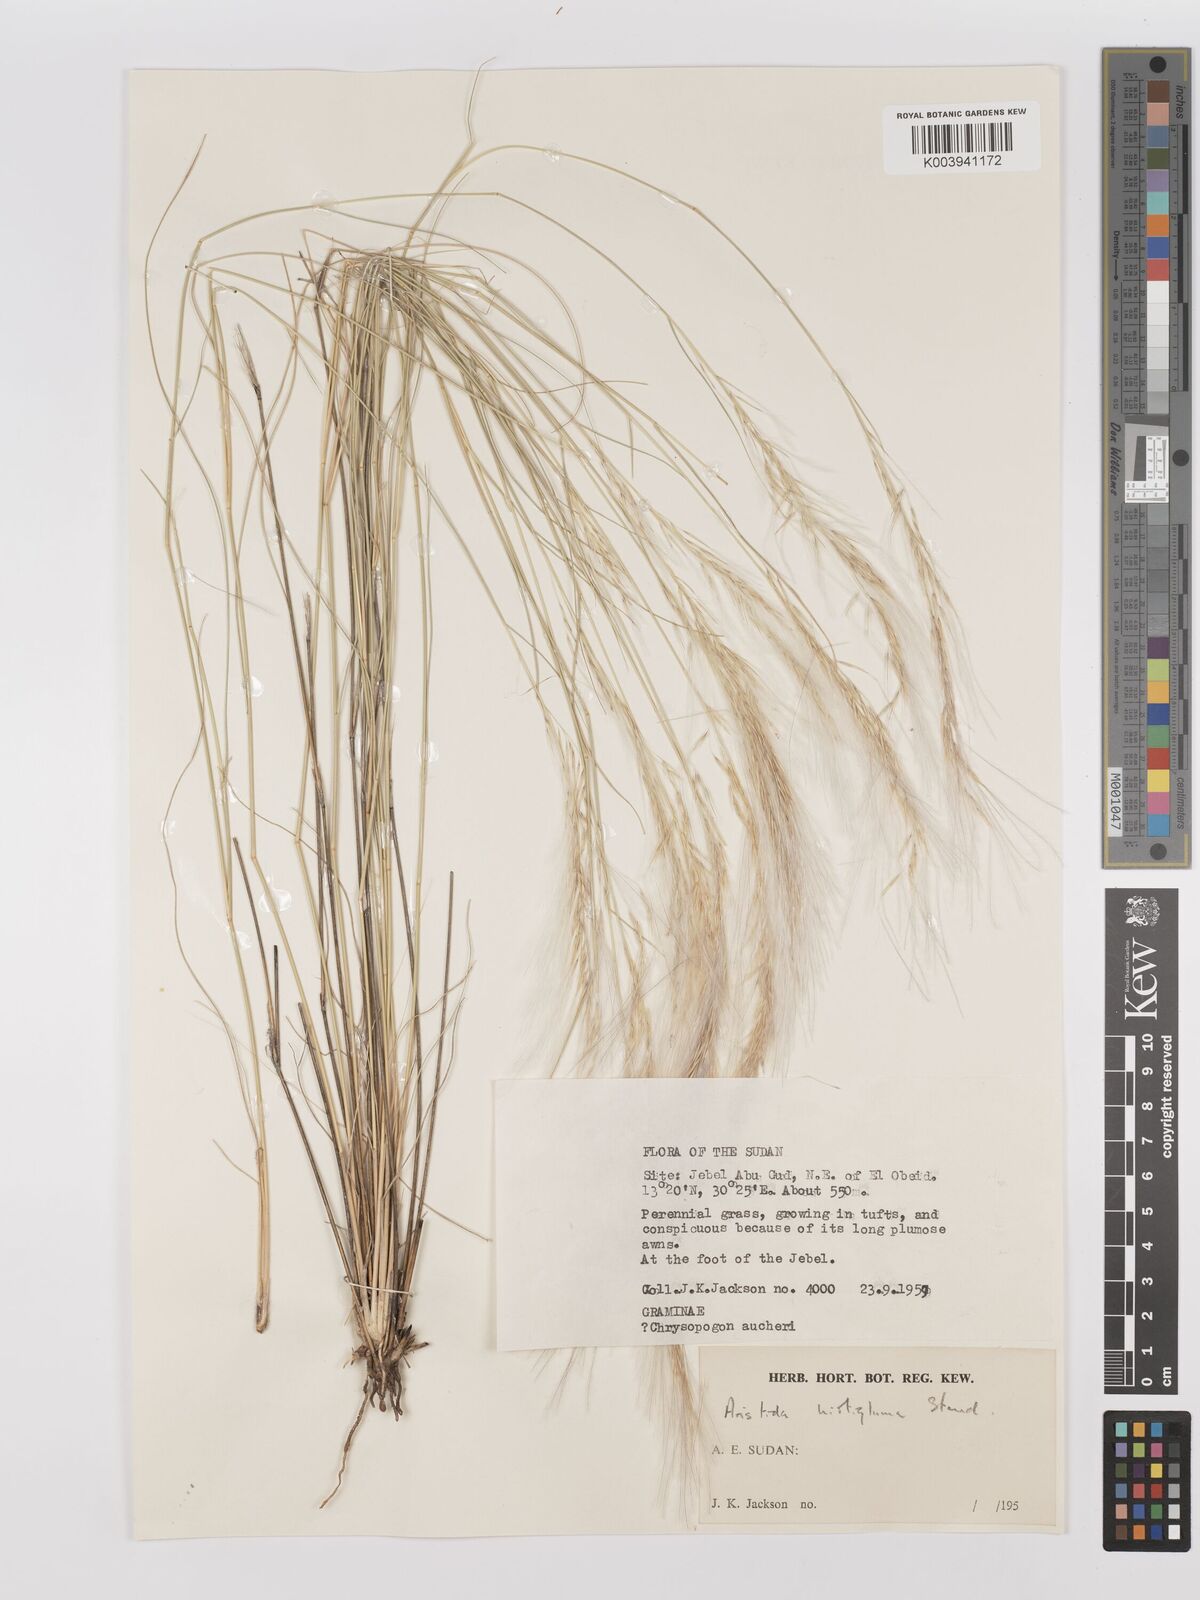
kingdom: Plantae
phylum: Tracheophyta
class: Liliopsida
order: Poales
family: Poaceae
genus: Stipagrostis
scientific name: Stipagrostis hirtigluma
